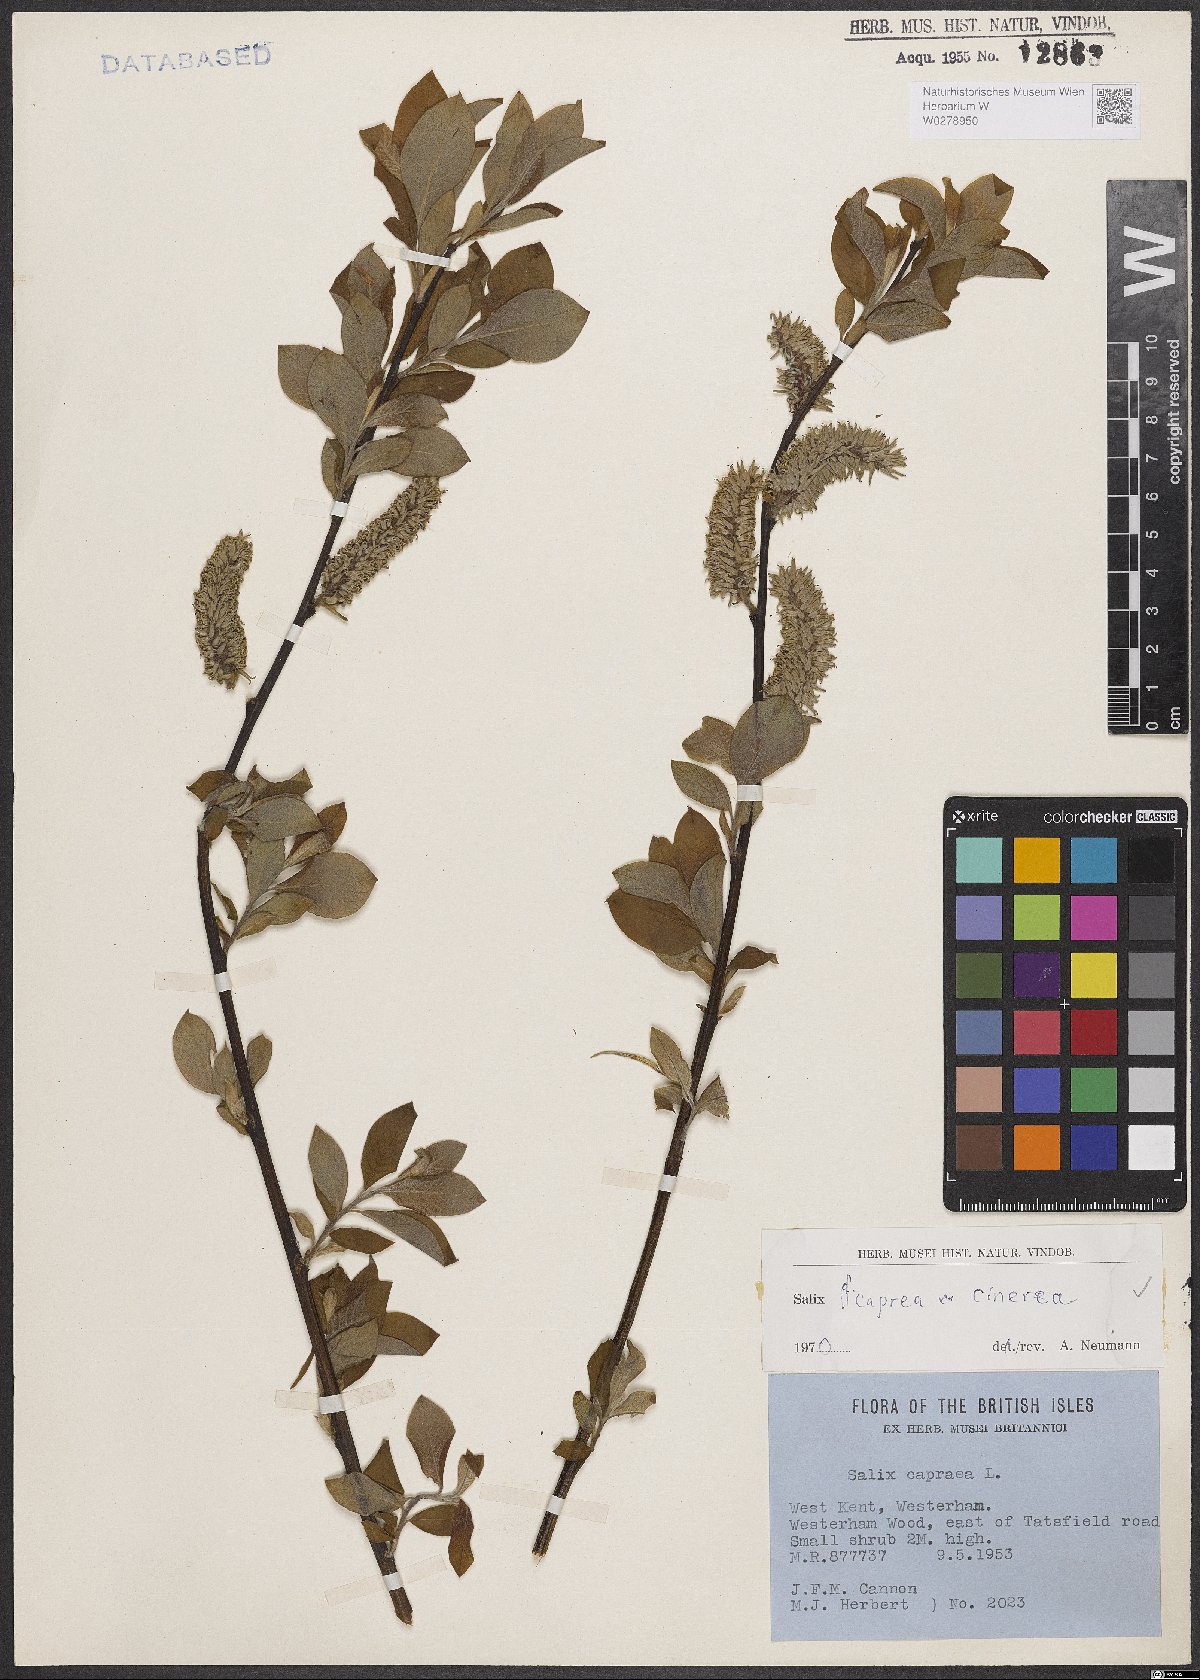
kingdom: Plantae
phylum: Tracheophyta
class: Magnoliopsida
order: Malpighiales
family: Salicaceae
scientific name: Salicaceae
